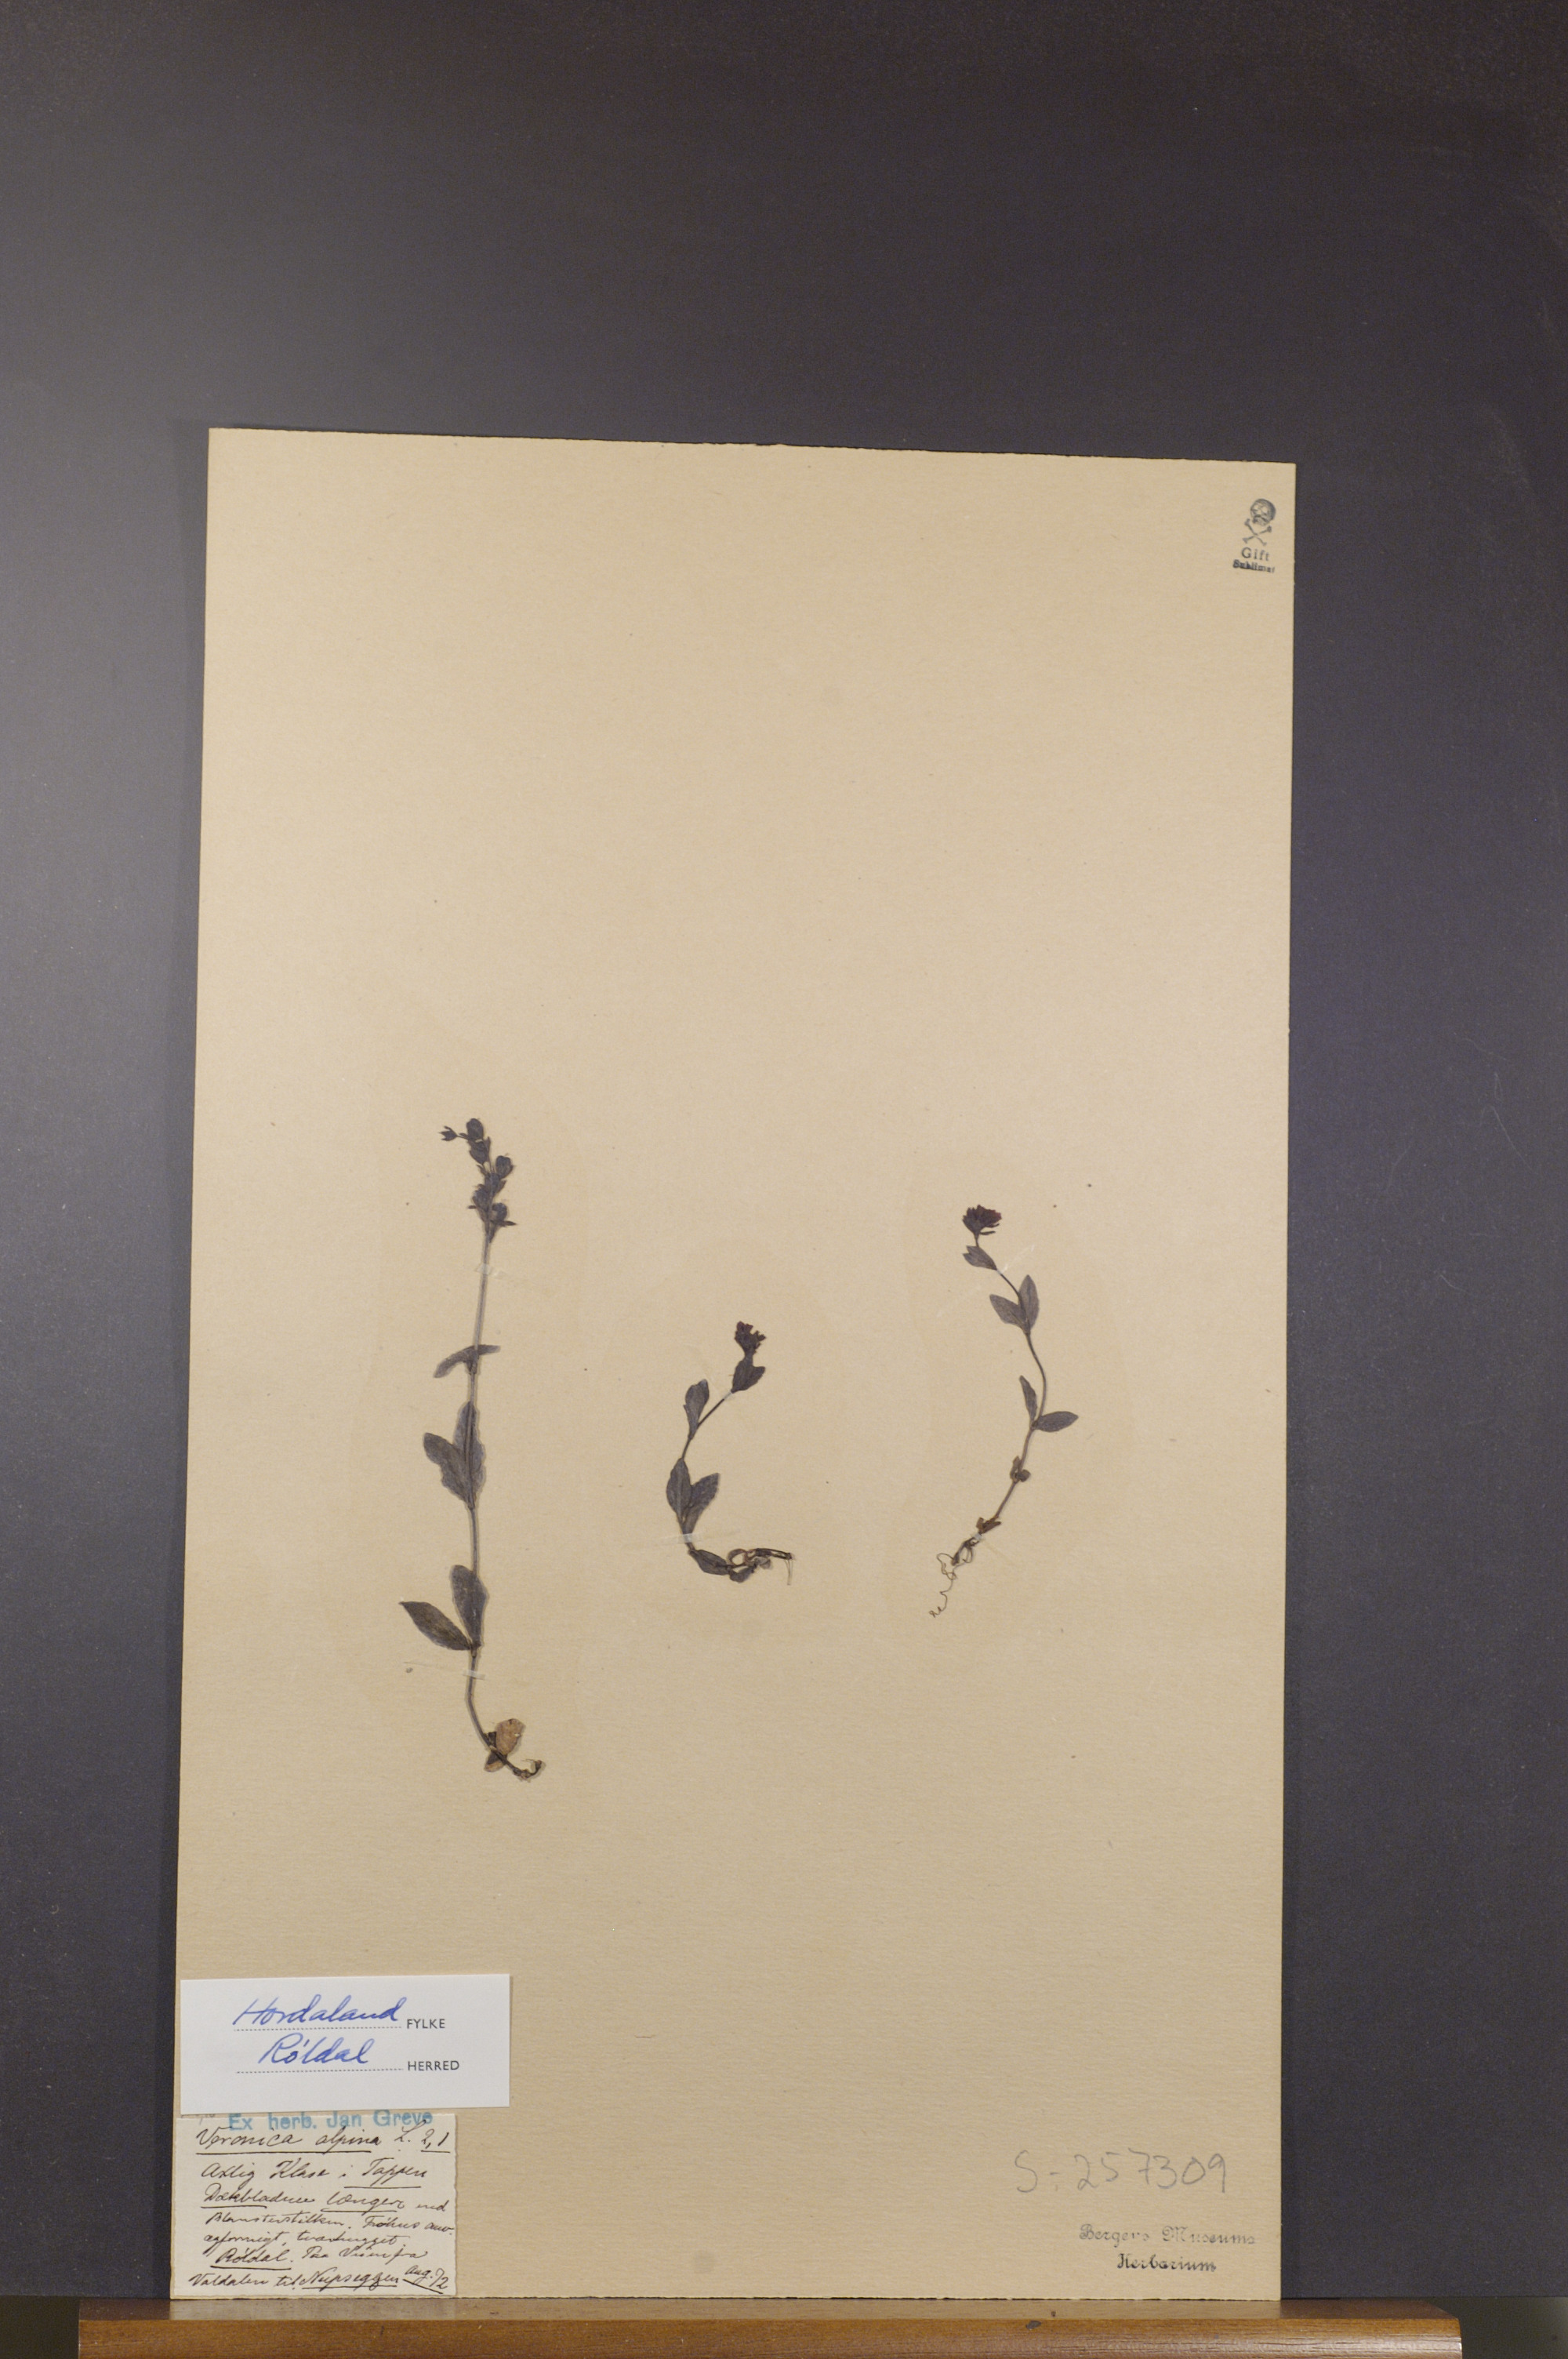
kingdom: Plantae
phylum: Tracheophyta
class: Magnoliopsida
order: Lamiales
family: Plantaginaceae
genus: Veronica
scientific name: Veronica alpina
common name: Alpine speedwell
